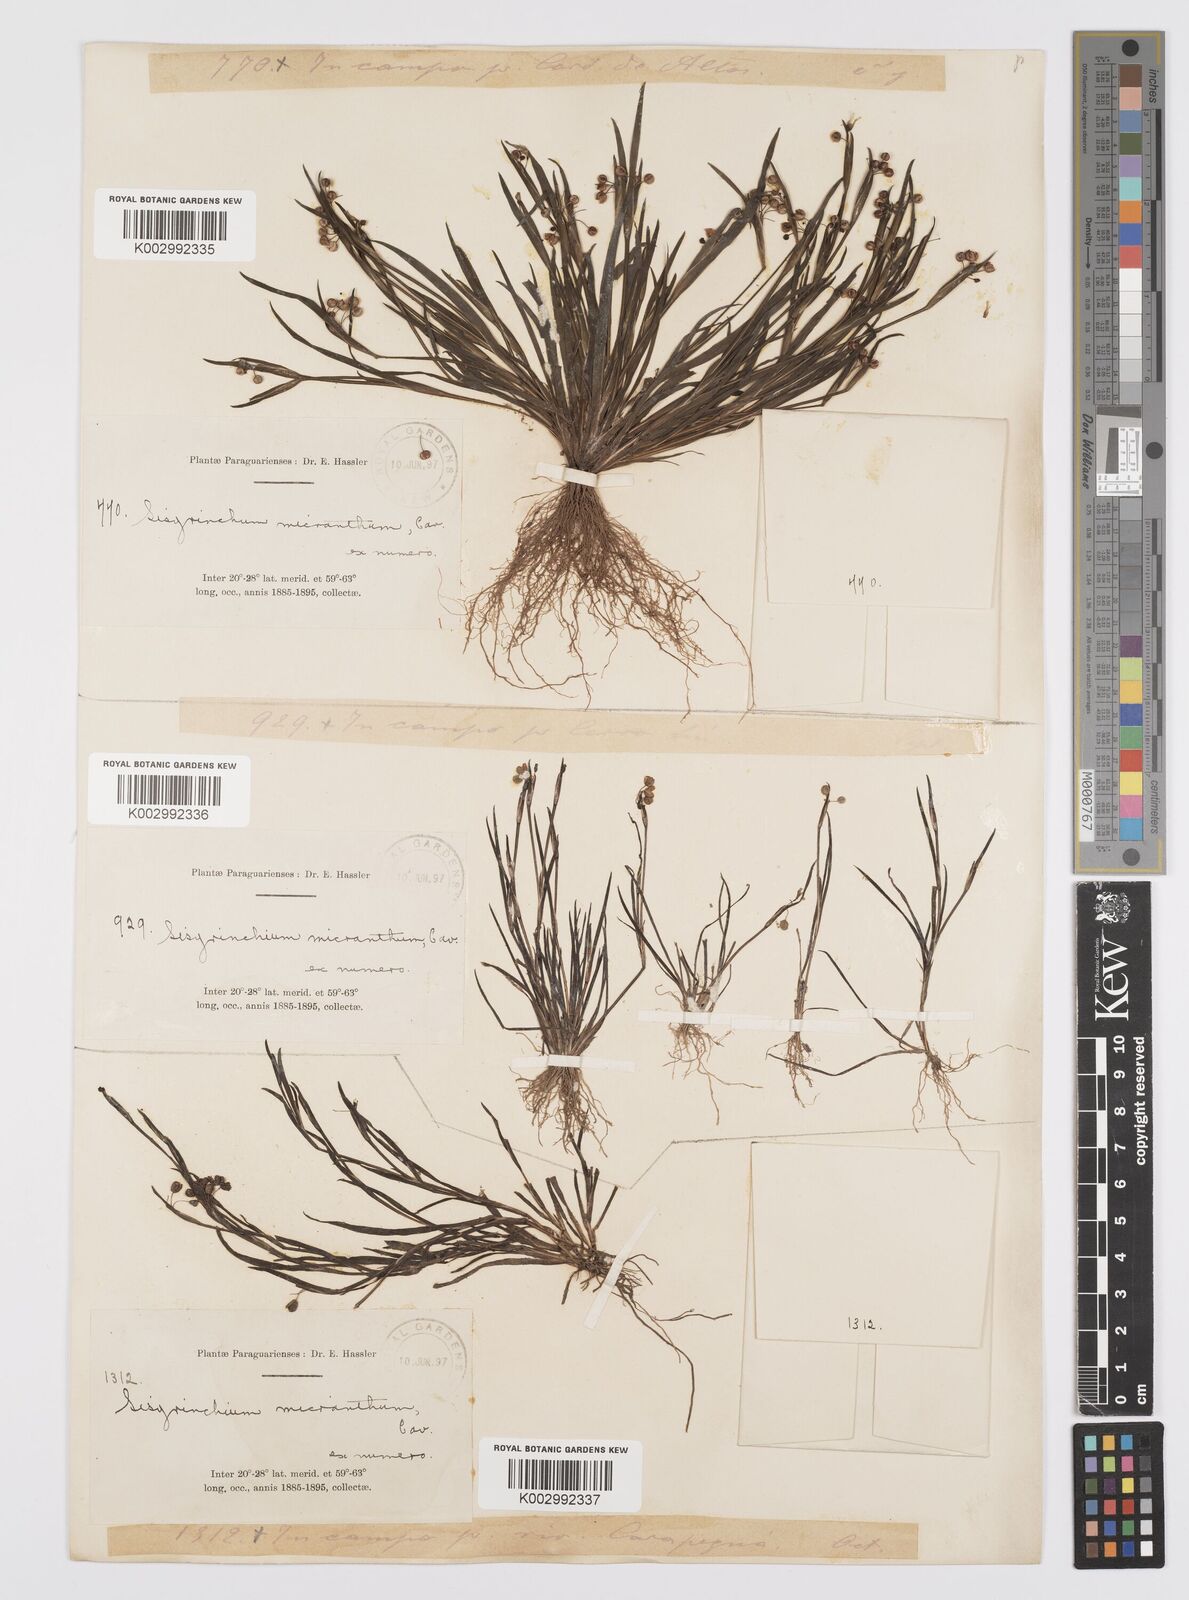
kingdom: Plantae
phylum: Tracheophyta
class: Liliopsida
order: Asparagales
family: Iridaceae
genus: Sisyrinchium
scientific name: Sisyrinchium micranthum
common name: Bermuda pigroot
